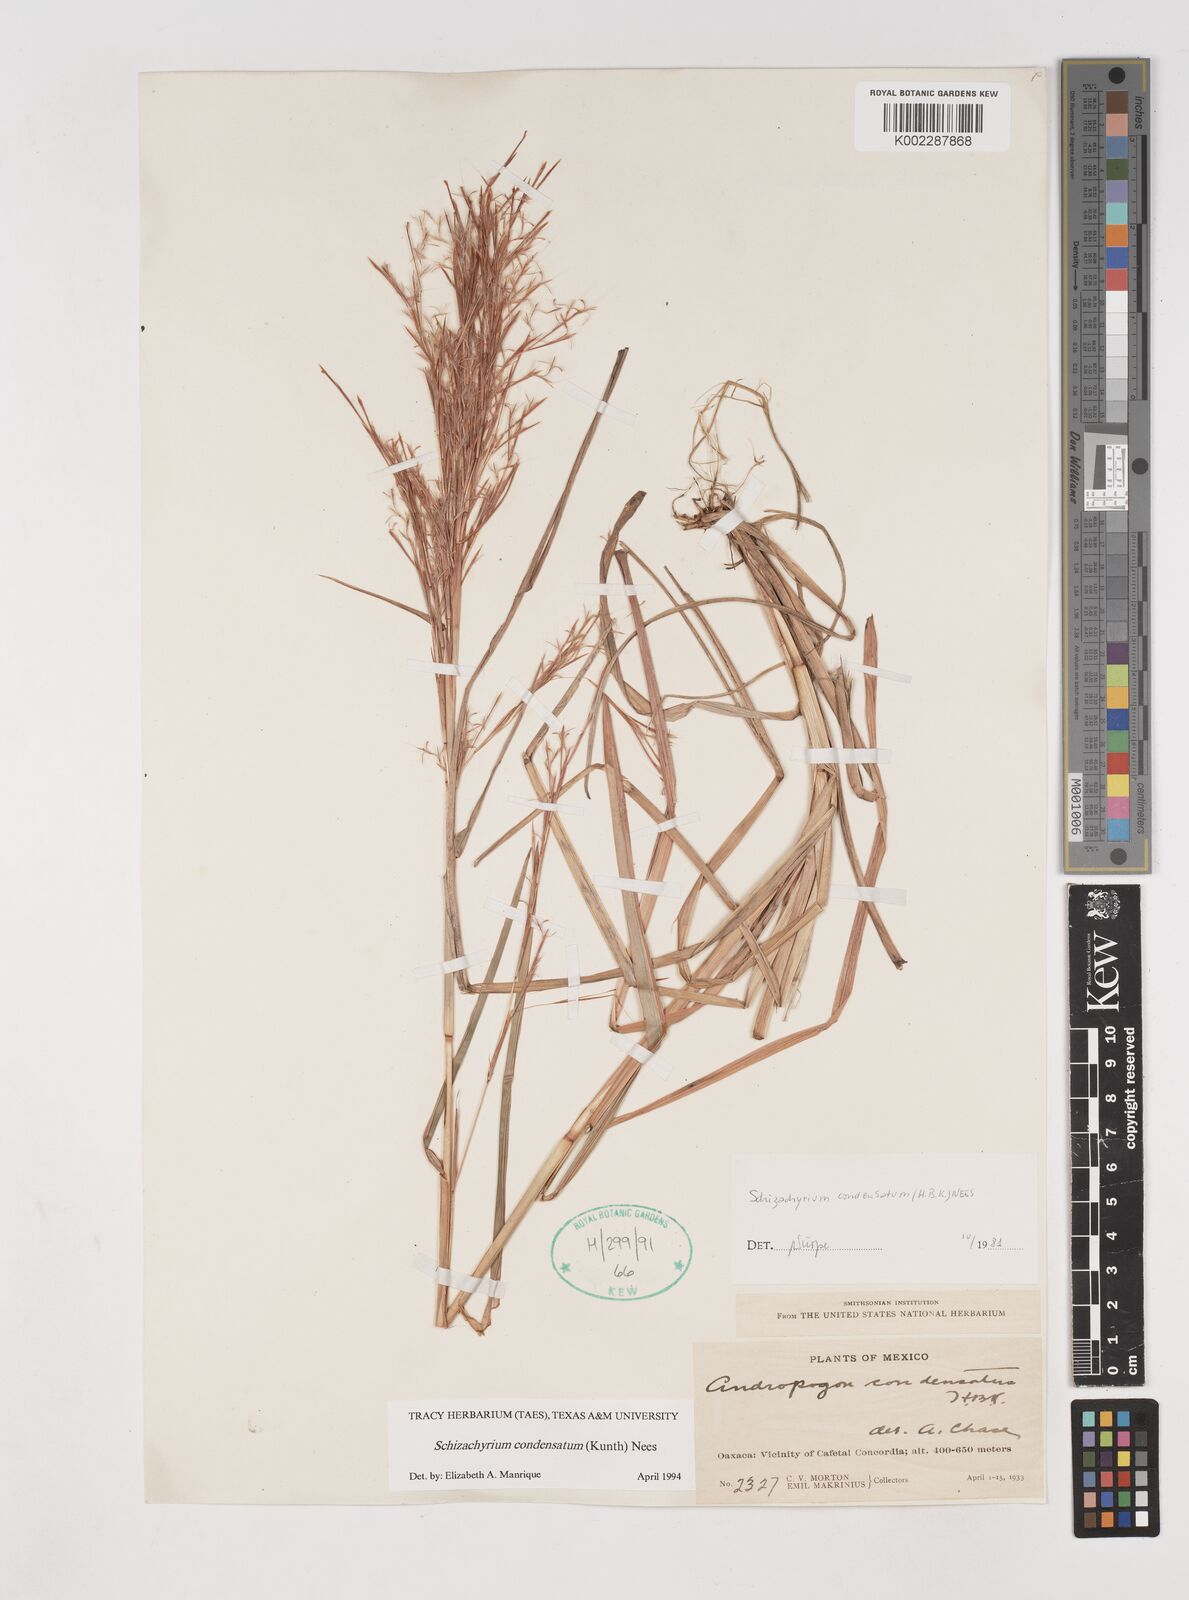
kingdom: Plantae
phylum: Tracheophyta
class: Liliopsida
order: Poales
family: Poaceae
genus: Schizachyrium
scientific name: Schizachyrium condensatum
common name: Bush beardgrass
